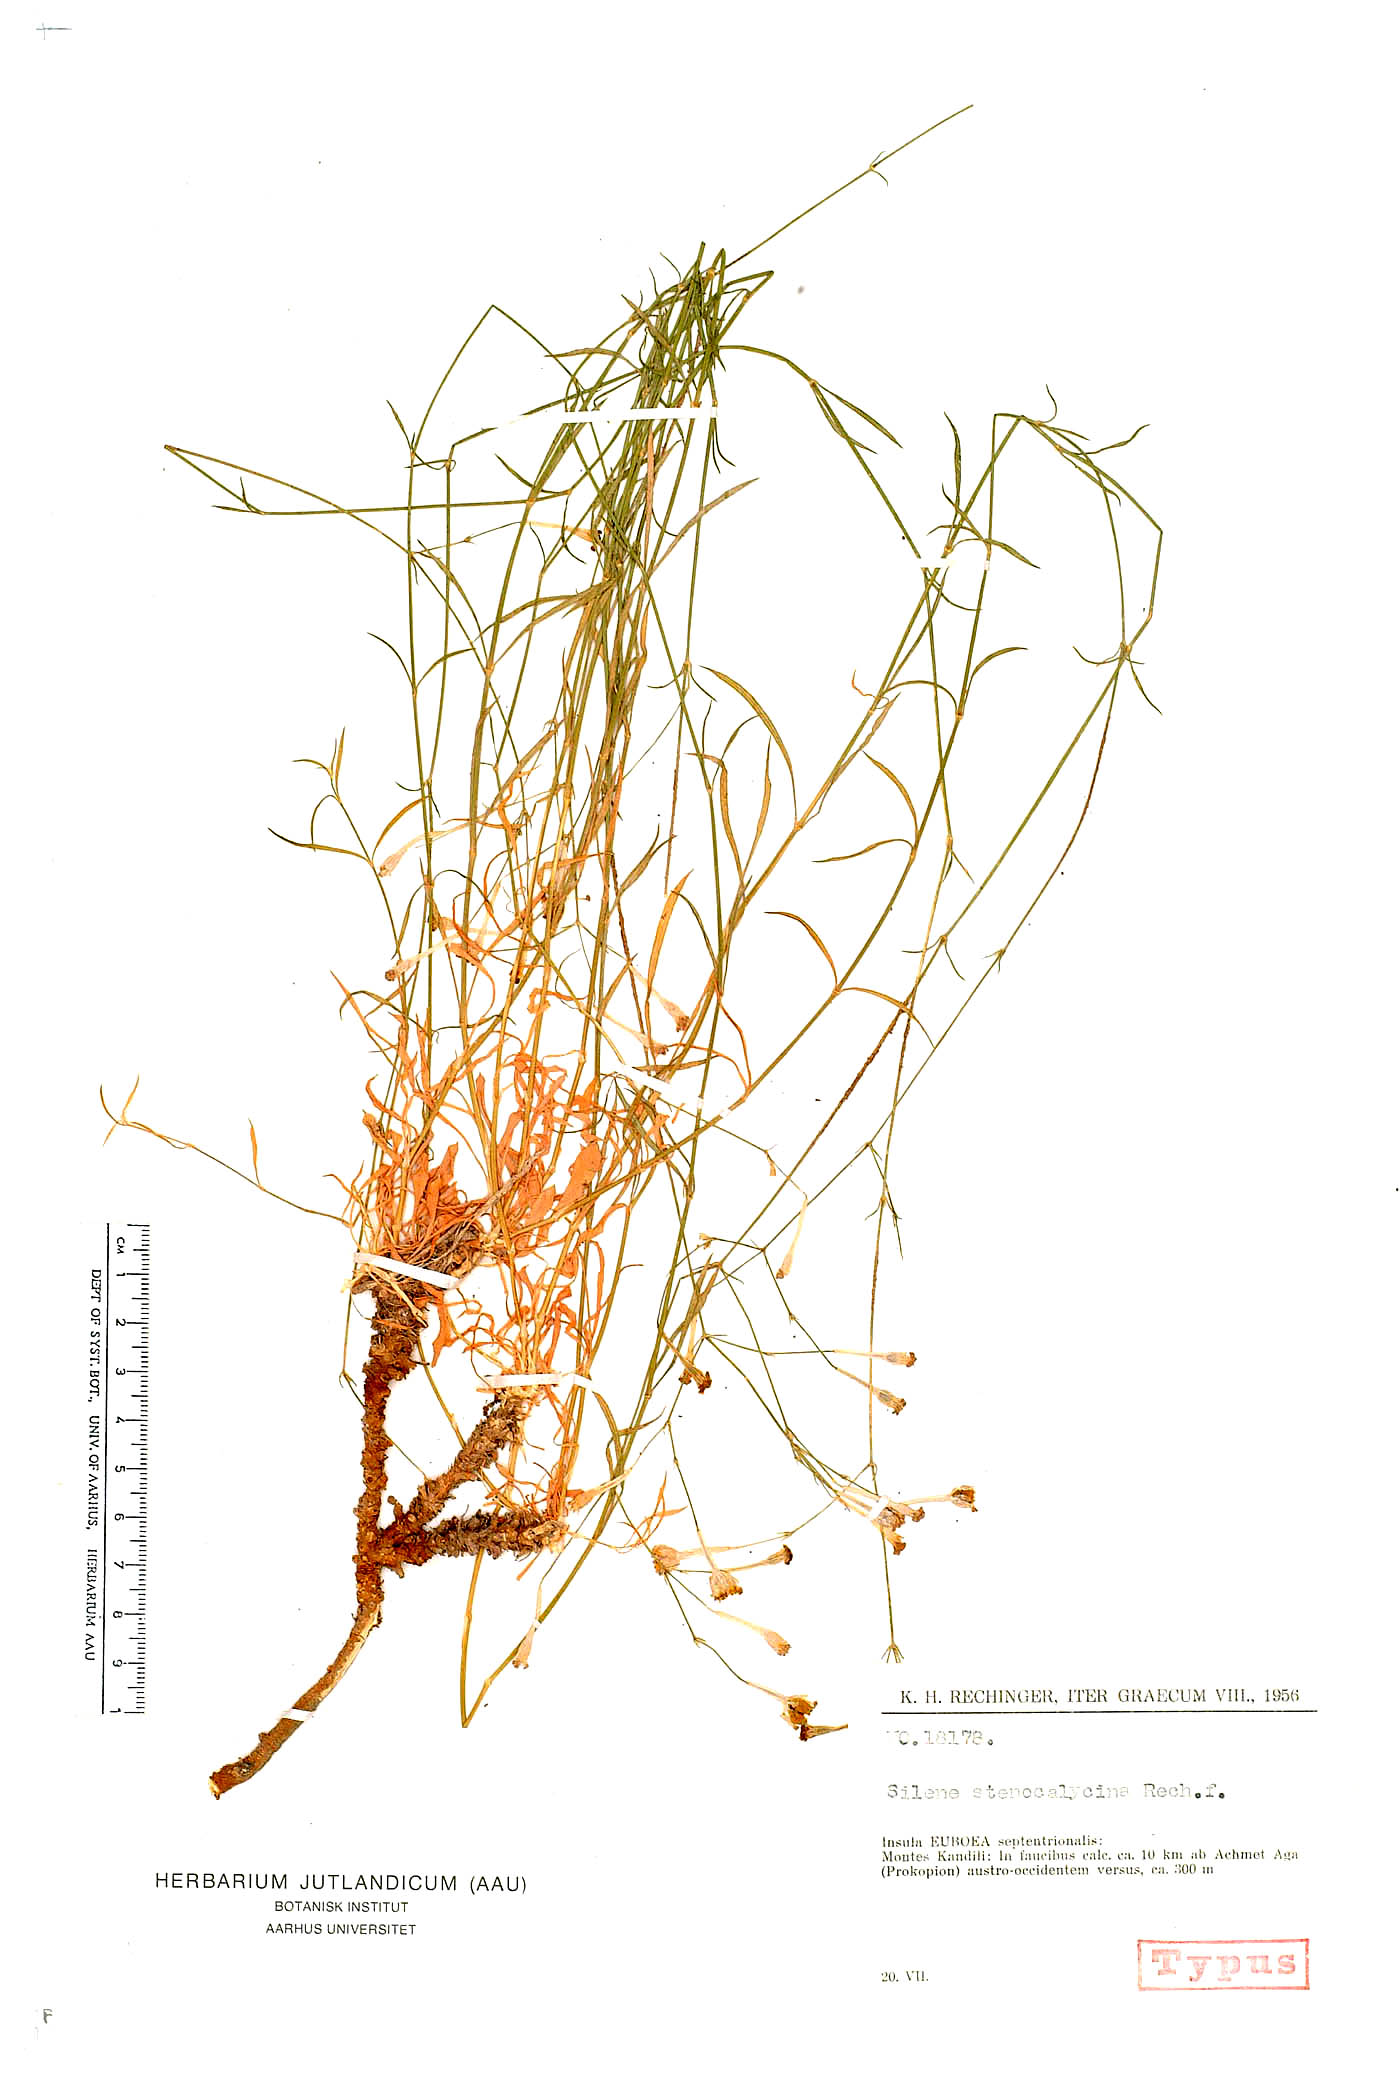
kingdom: Plantae
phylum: Tracheophyta
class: Magnoliopsida
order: Caryophyllales
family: Caryophyllaceae
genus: Silene
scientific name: Silene multicaulis
